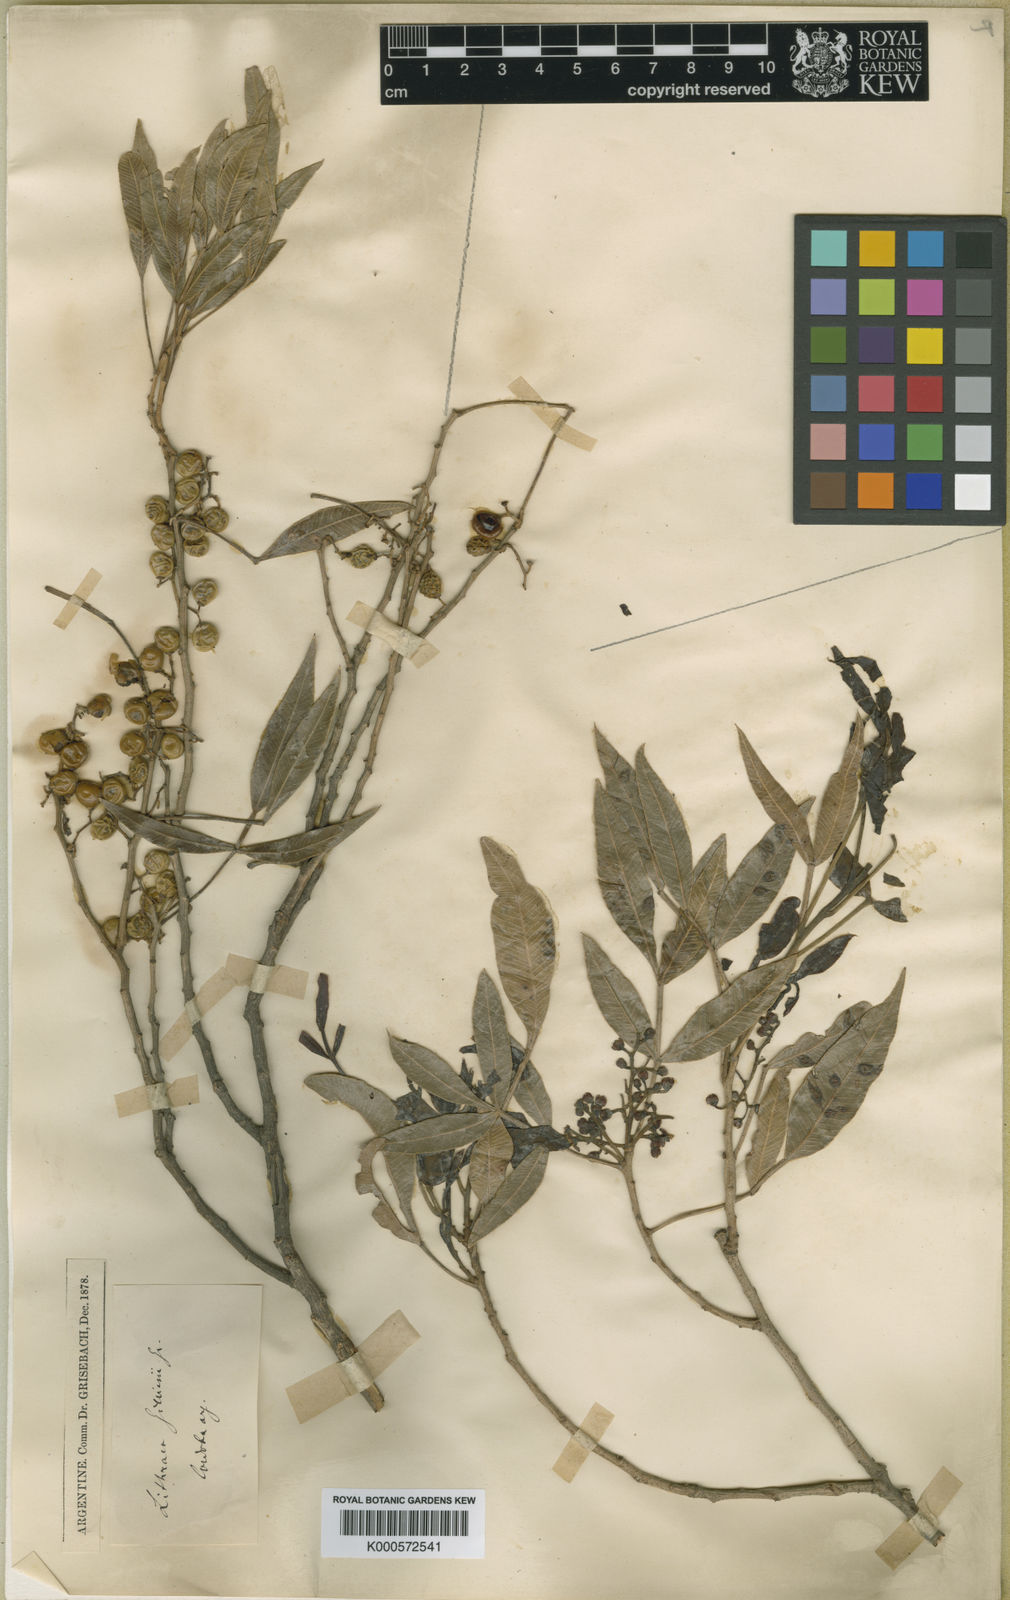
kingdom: Plantae
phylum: Tracheophyta
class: Magnoliopsida
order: Sapindales
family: Anacardiaceae
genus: Lithraea
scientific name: Lithraea molleoides
